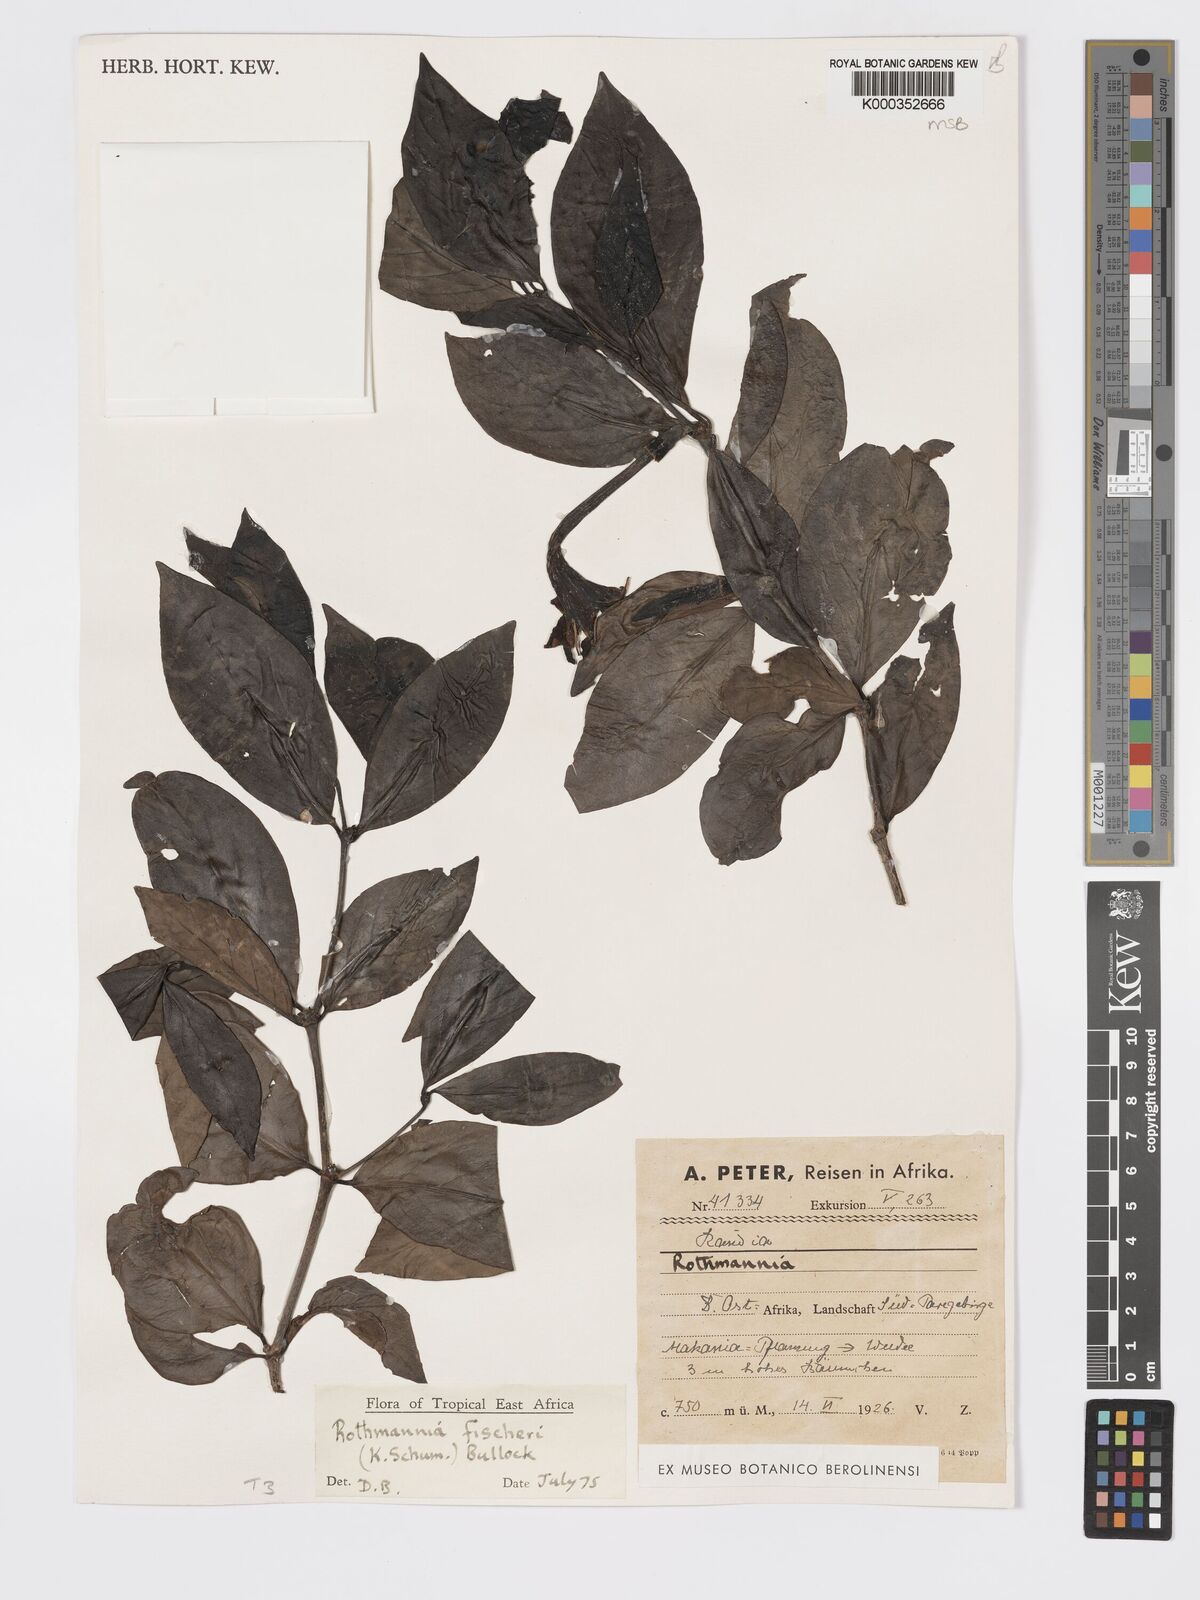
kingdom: Plantae
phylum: Tracheophyta
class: Magnoliopsida
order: Gentianales
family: Rubiaceae
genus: Rothmannia
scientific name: Rothmannia fischeri
